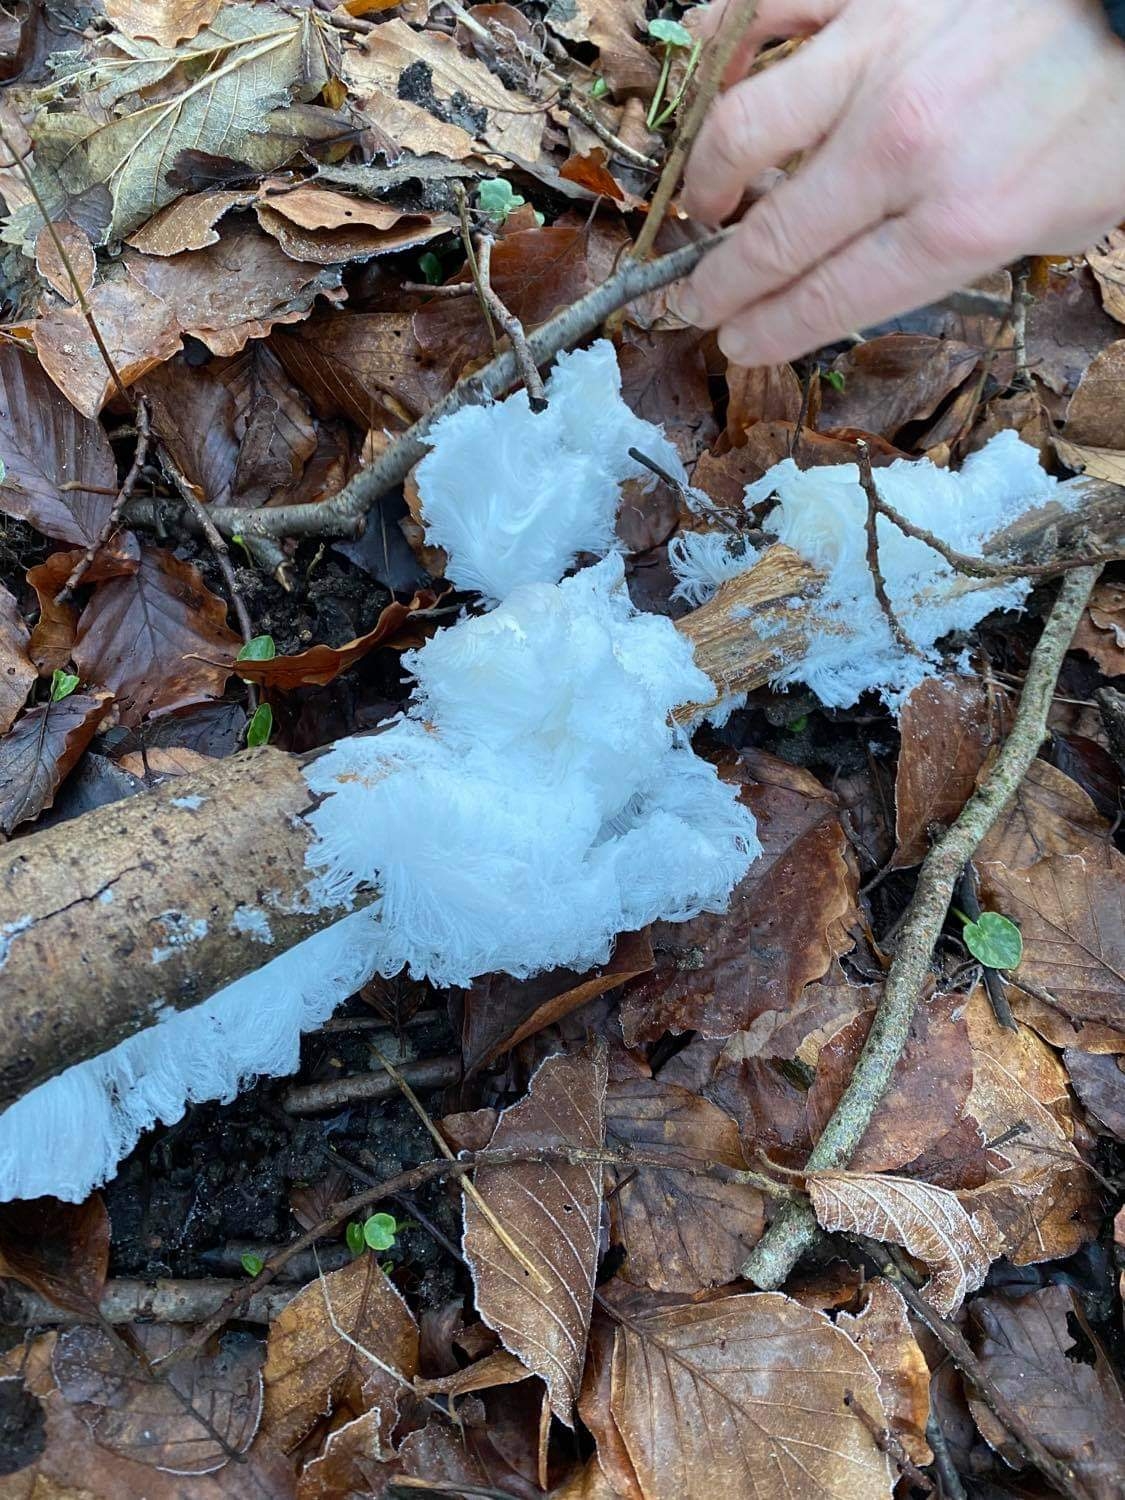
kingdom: Fungi
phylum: Basidiomycota
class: Tremellomycetes
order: Tremellales
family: Exidiaceae
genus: Exidiopsis
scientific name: Exidiopsis effusa
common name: smuk bævrehinde
